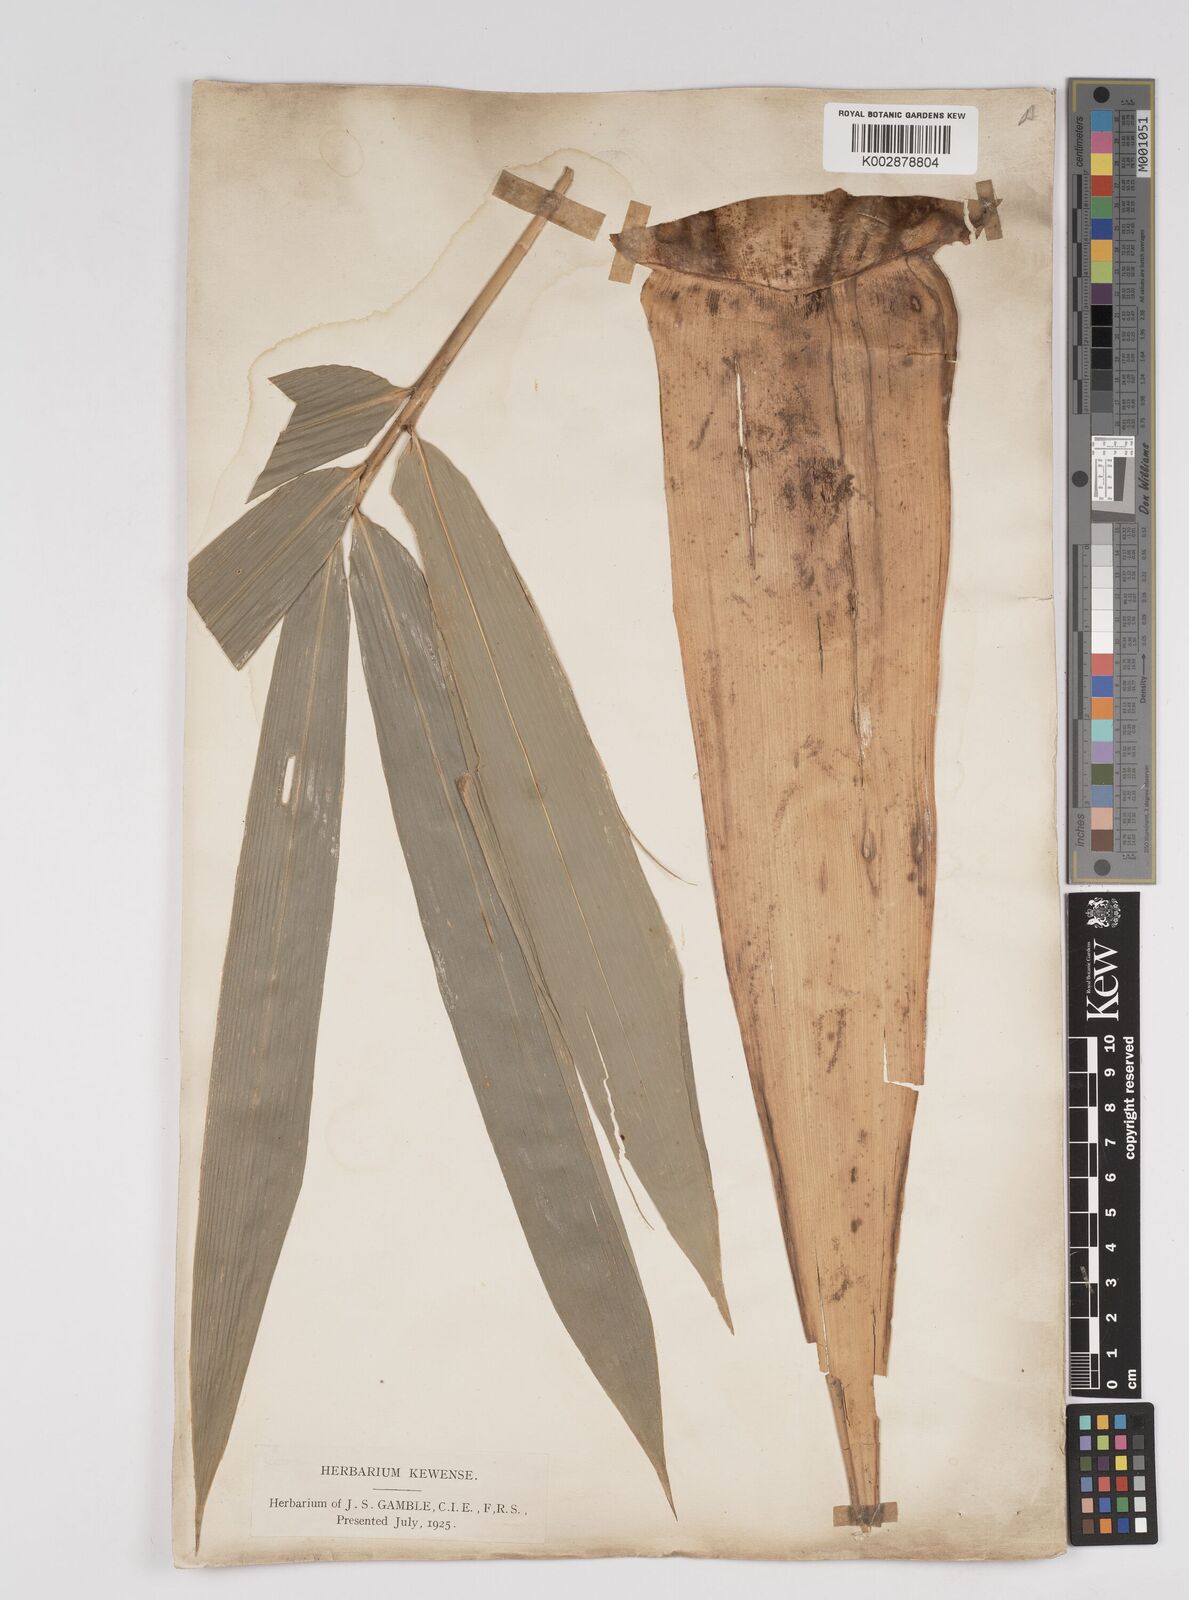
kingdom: Plantae
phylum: Tracheophyta
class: Liliopsida
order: Poales
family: Poaceae
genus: Dendrocalamus
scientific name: Dendrocalamus hamiltonii
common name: Tama bamboo
